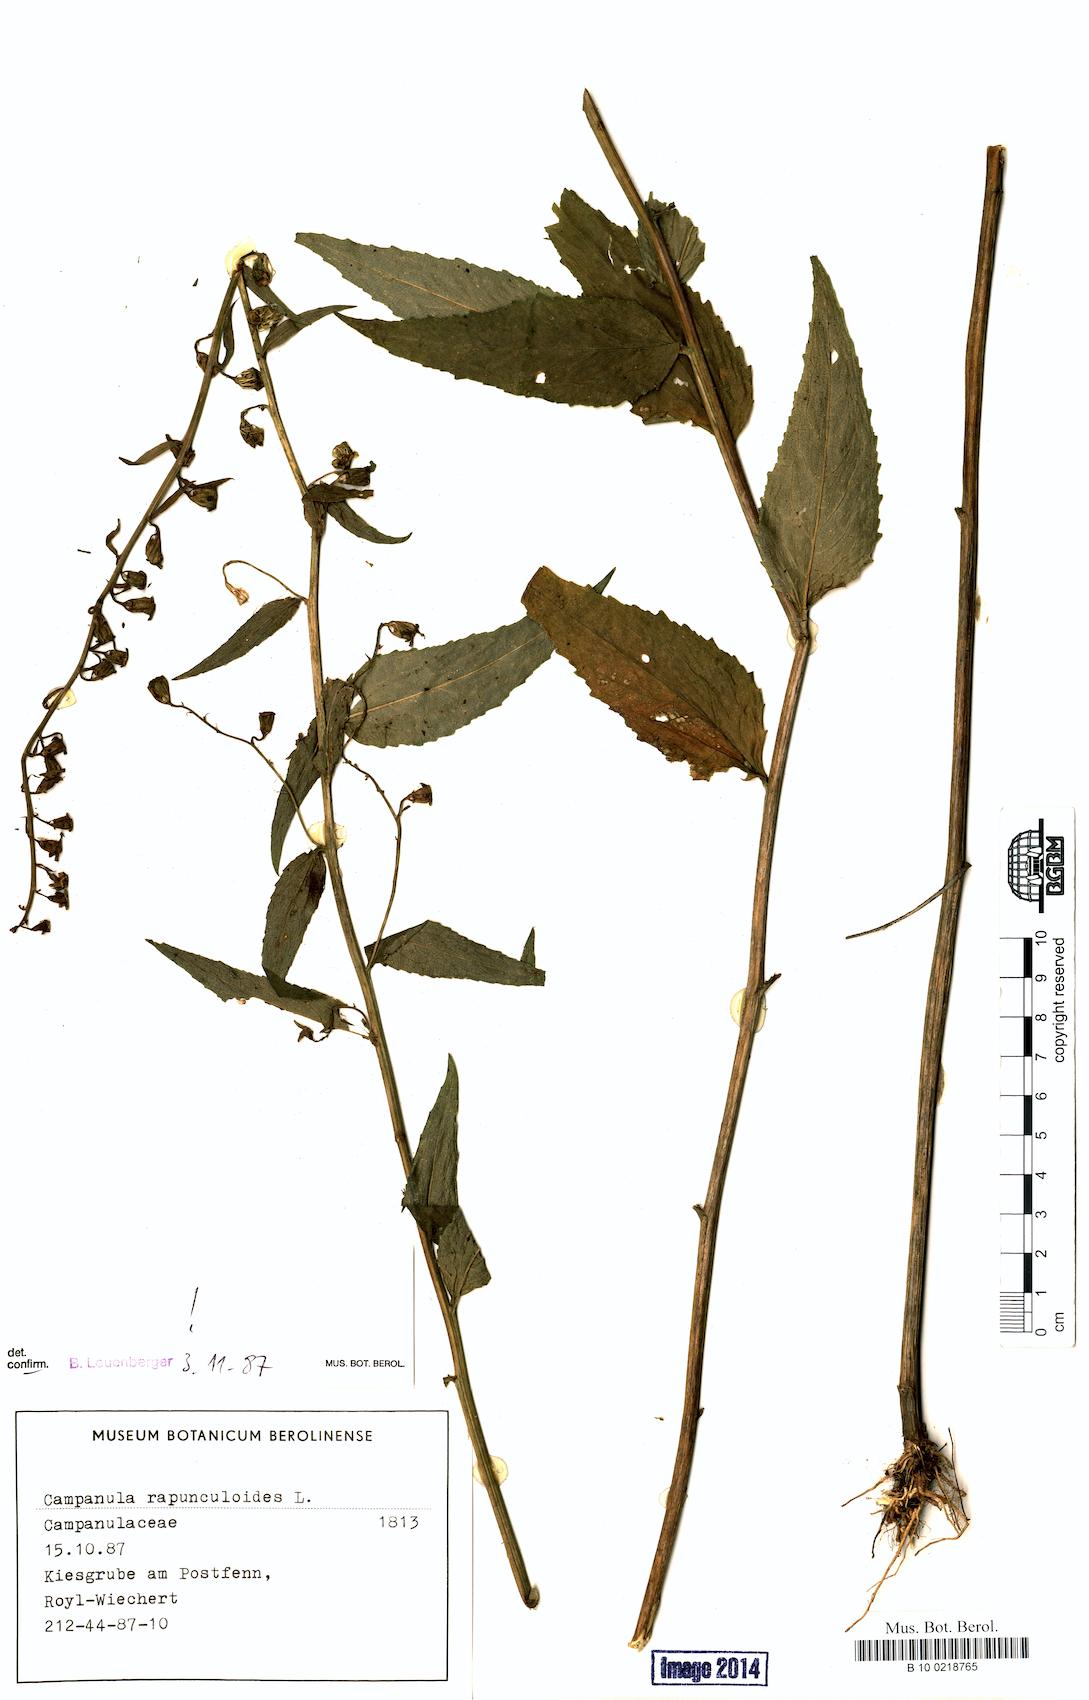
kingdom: Plantae
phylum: Tracheophyta
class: Magnoliopsida
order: Asterales
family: Campanulaceae
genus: Campanula
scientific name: Campanula rapunculoides
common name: Creeping bellflower
